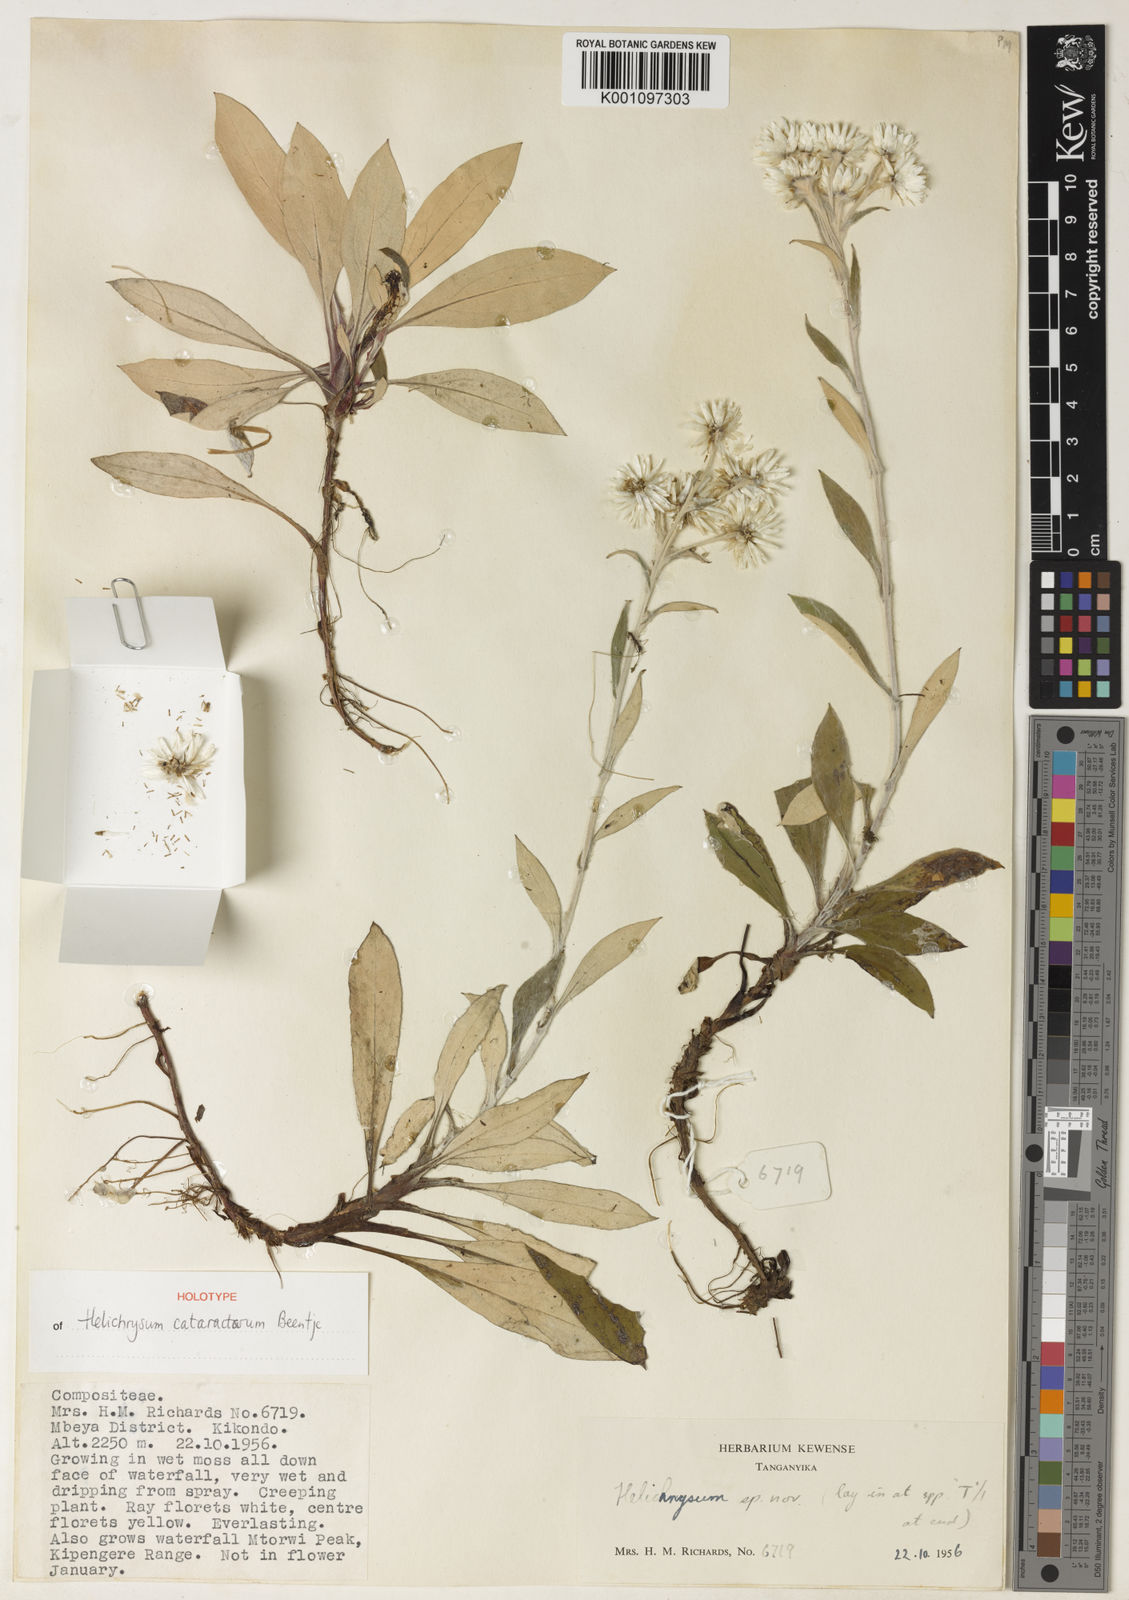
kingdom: Plantae
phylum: Tracheophyta
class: Magnoliopsida
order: Lamiales
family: Acanthaceae
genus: Brillantaisia
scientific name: Brillantaisia richardsiae
